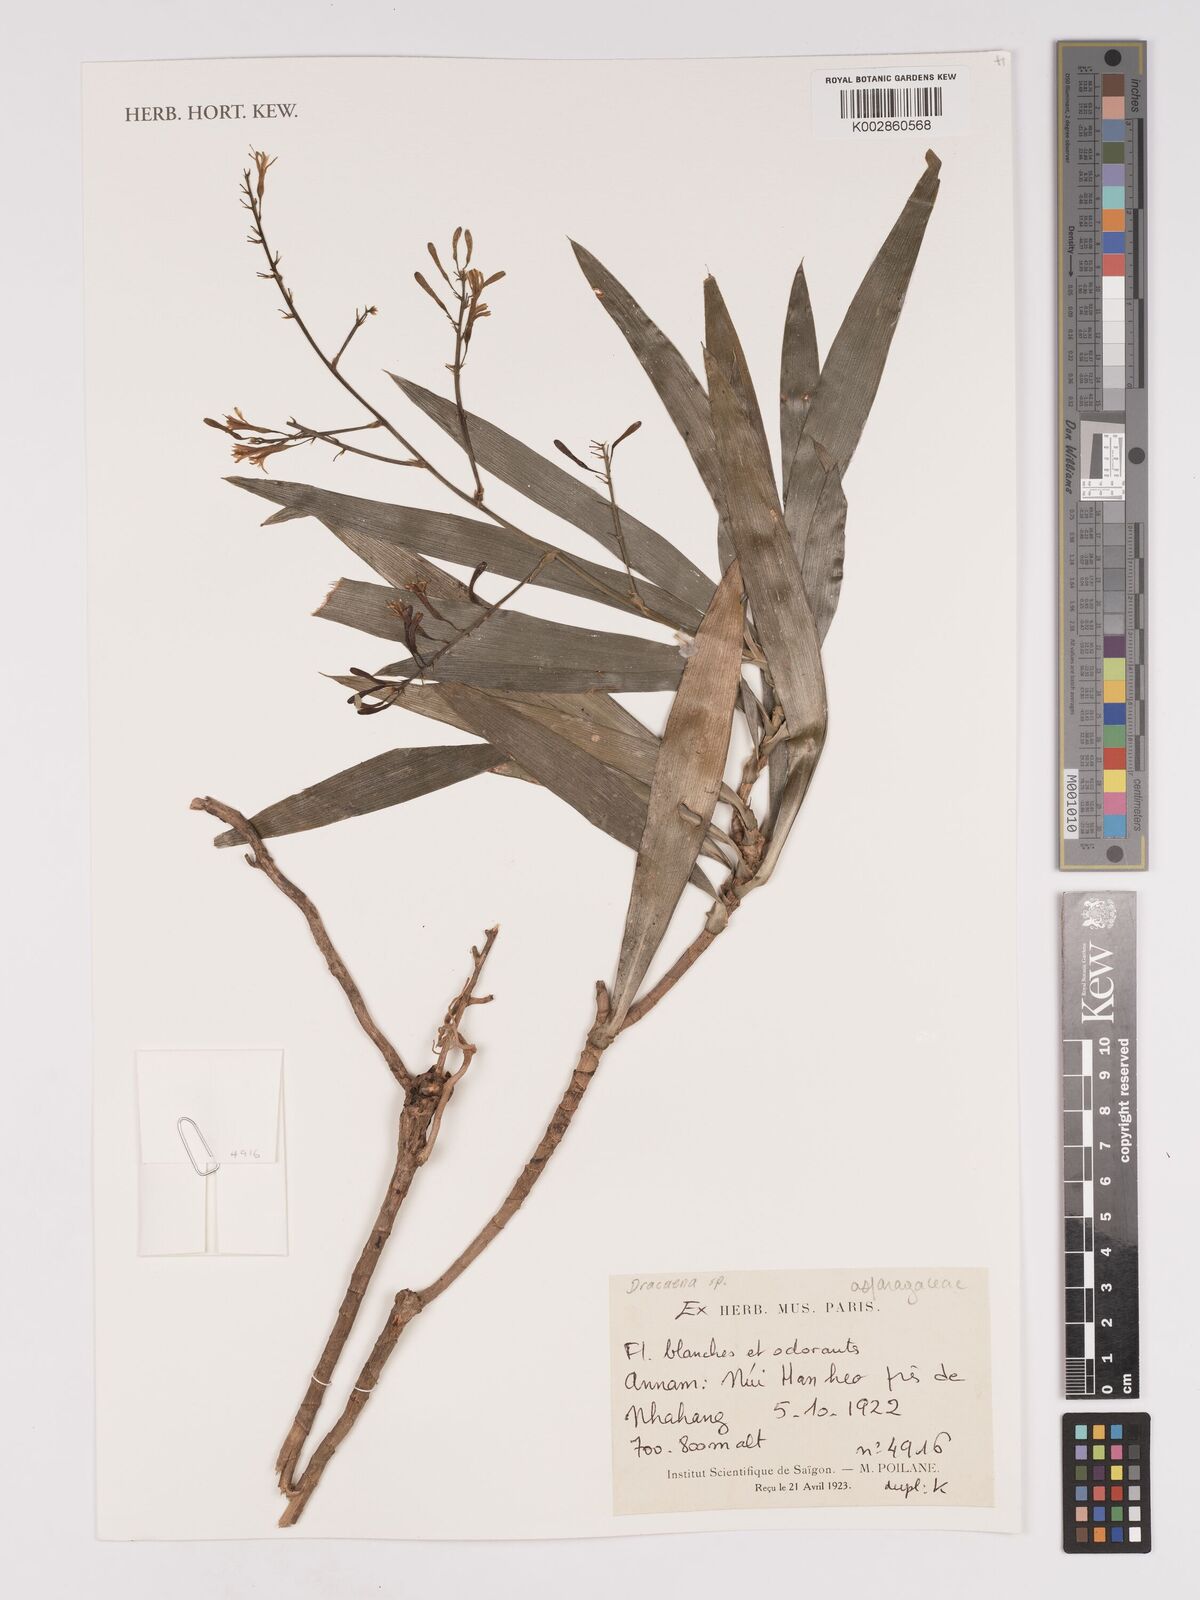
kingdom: Plantae
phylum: Tracheophyta
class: Liliopsida
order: Asparagales
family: Asparagaceae
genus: Dracaena
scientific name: Dracaena
